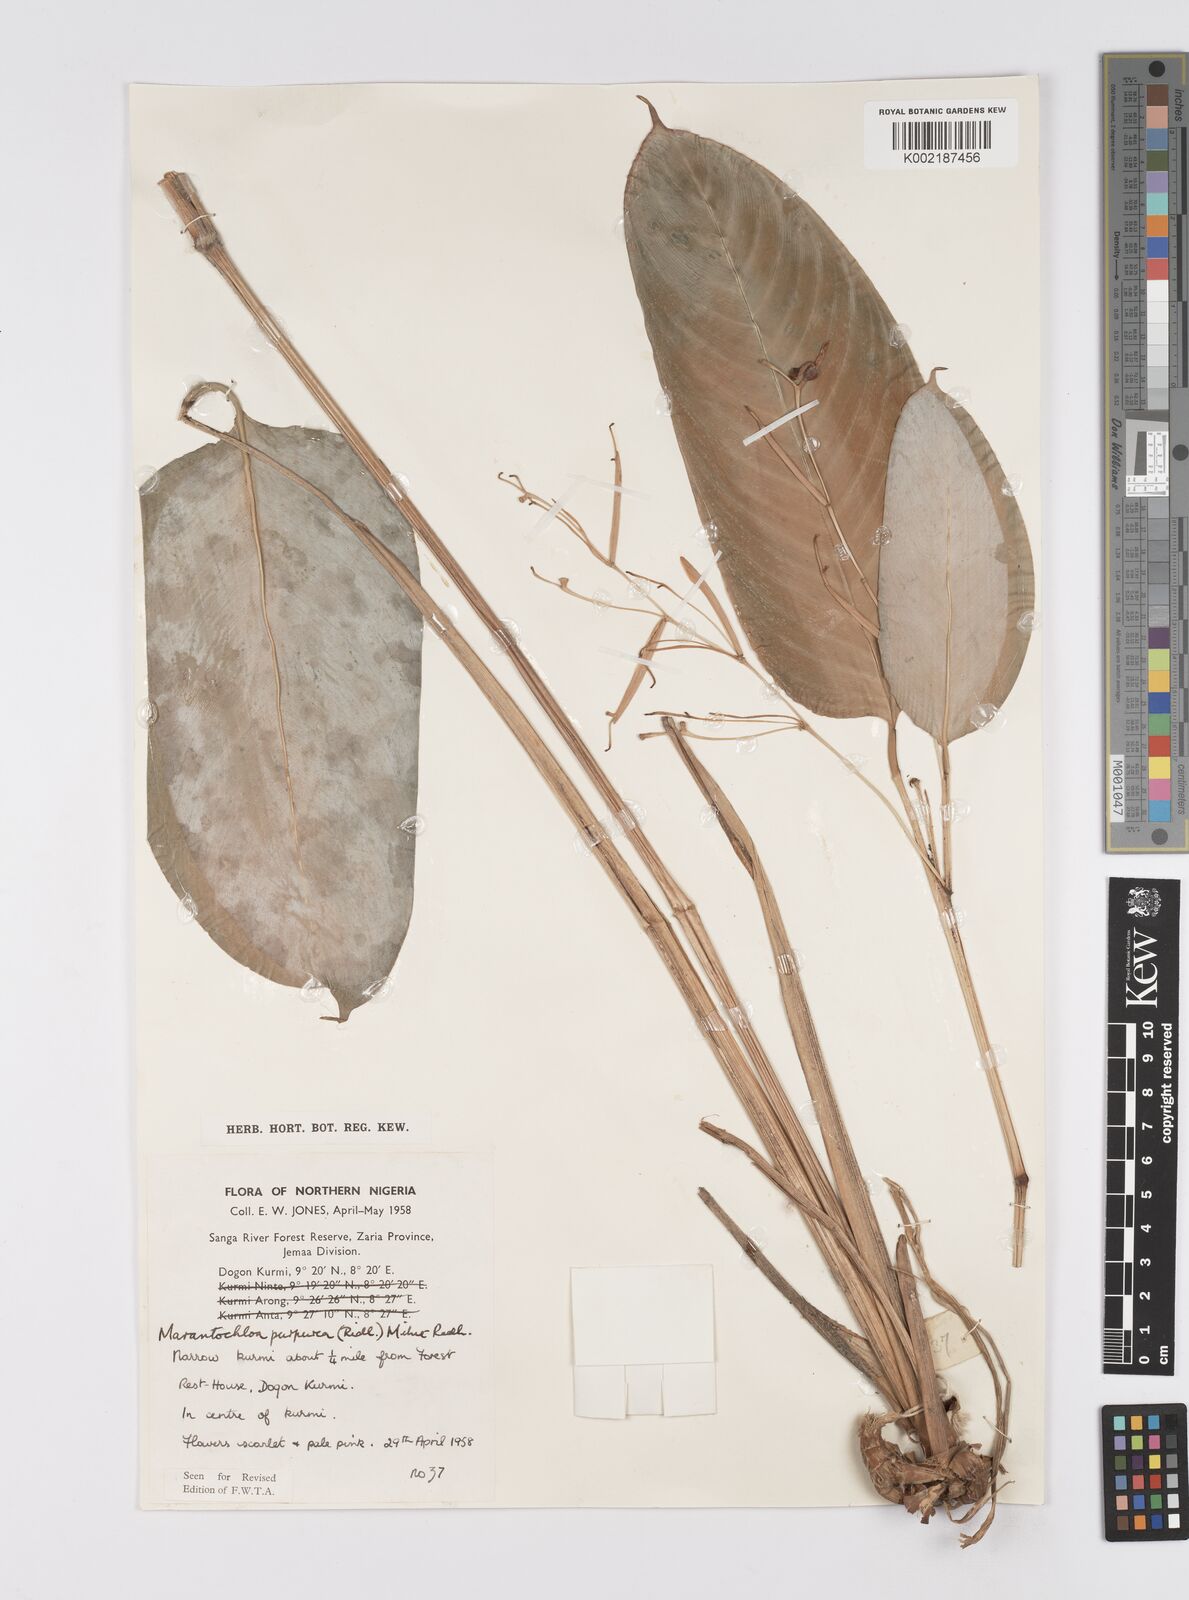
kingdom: Plantae
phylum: Tracheophyta
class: Liliopsida
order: Zingiberales
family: Marantaceae
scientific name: Marantaceae
